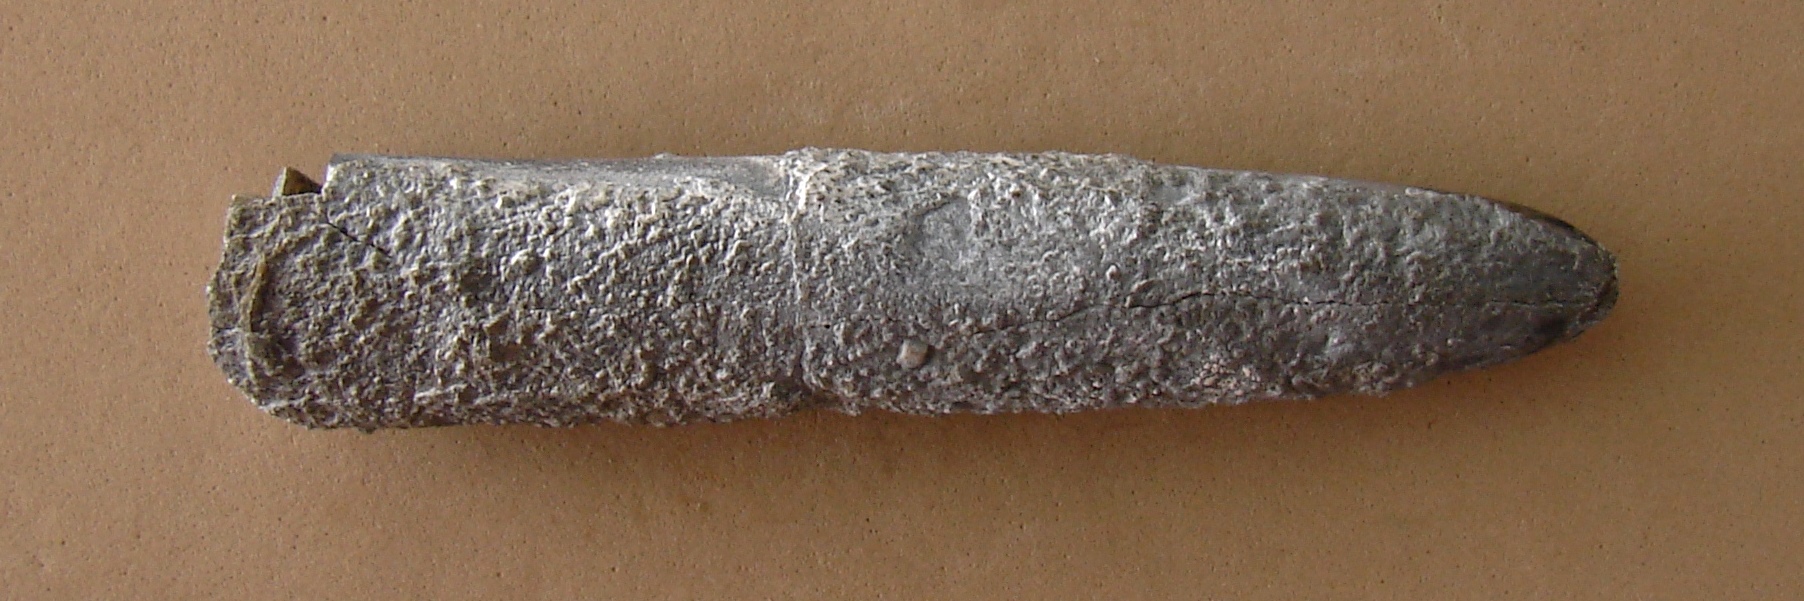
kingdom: Animalia
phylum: Mollusca
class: Cephalopoda
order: Belemnitida
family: Megateuthididae
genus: Dactyloteuthis
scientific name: Dactyloteuthis similis
